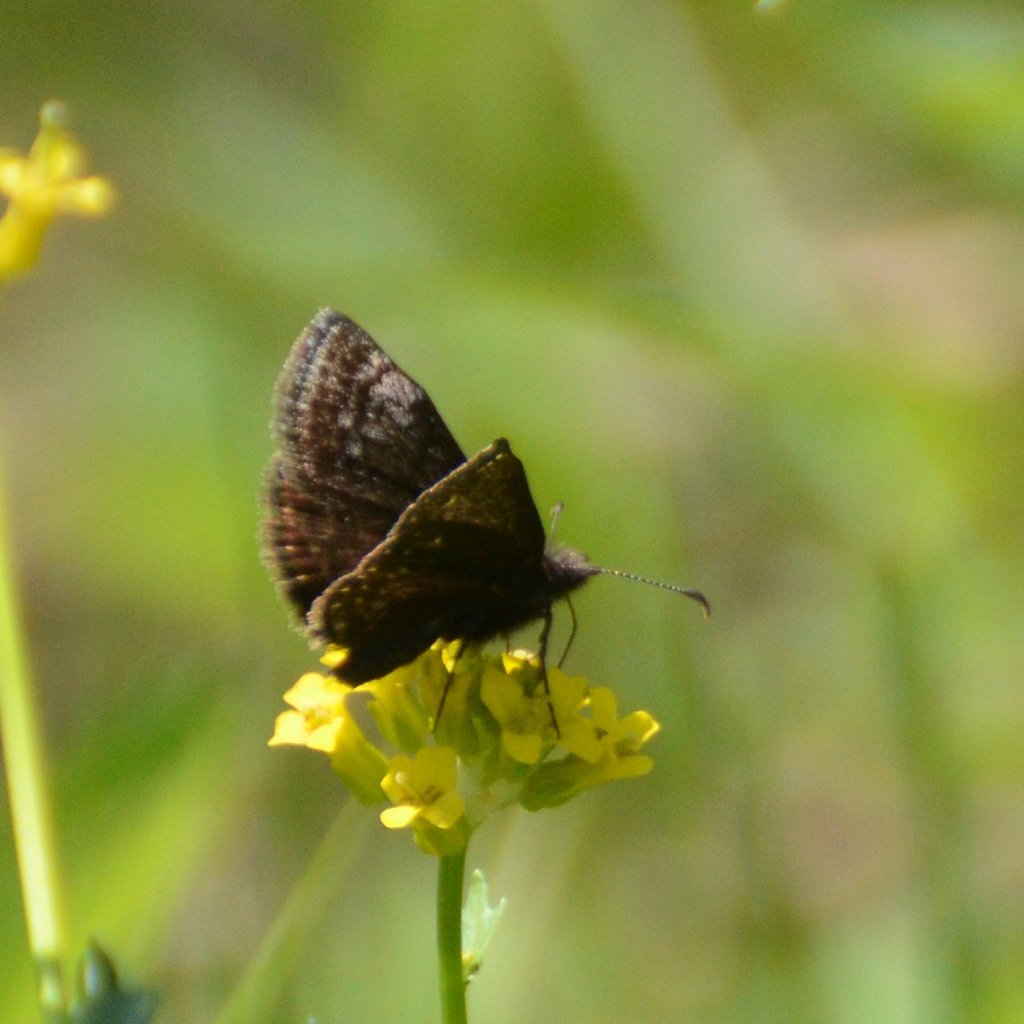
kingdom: Animalia
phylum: Arthropoda
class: Insecta
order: Lepidoptera
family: Hesperiidae
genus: Erynnis
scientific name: Erynnis icelus
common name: Dreamy Duskywing
